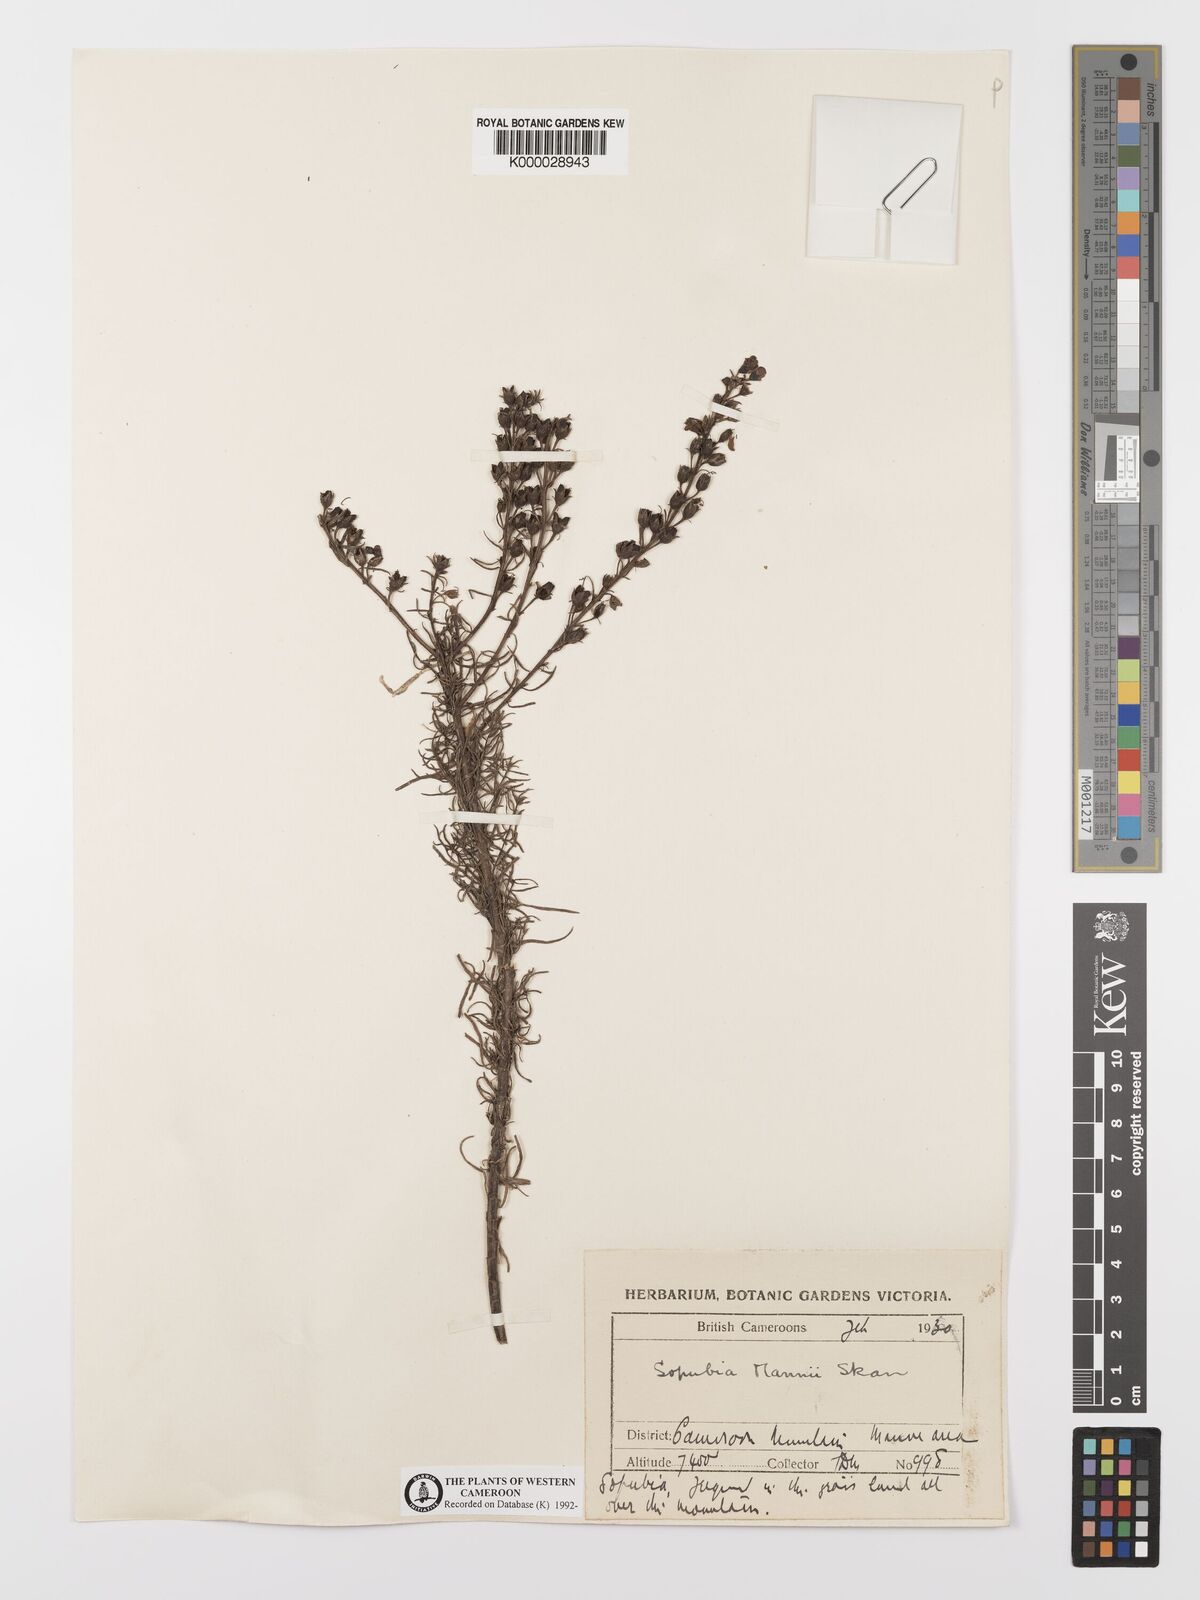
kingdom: Plantae
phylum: Tracheophyta
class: Magnoliopsida
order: Lamiales
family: Orobanchaceae
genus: Sopubia
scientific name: Sopubia mannii
